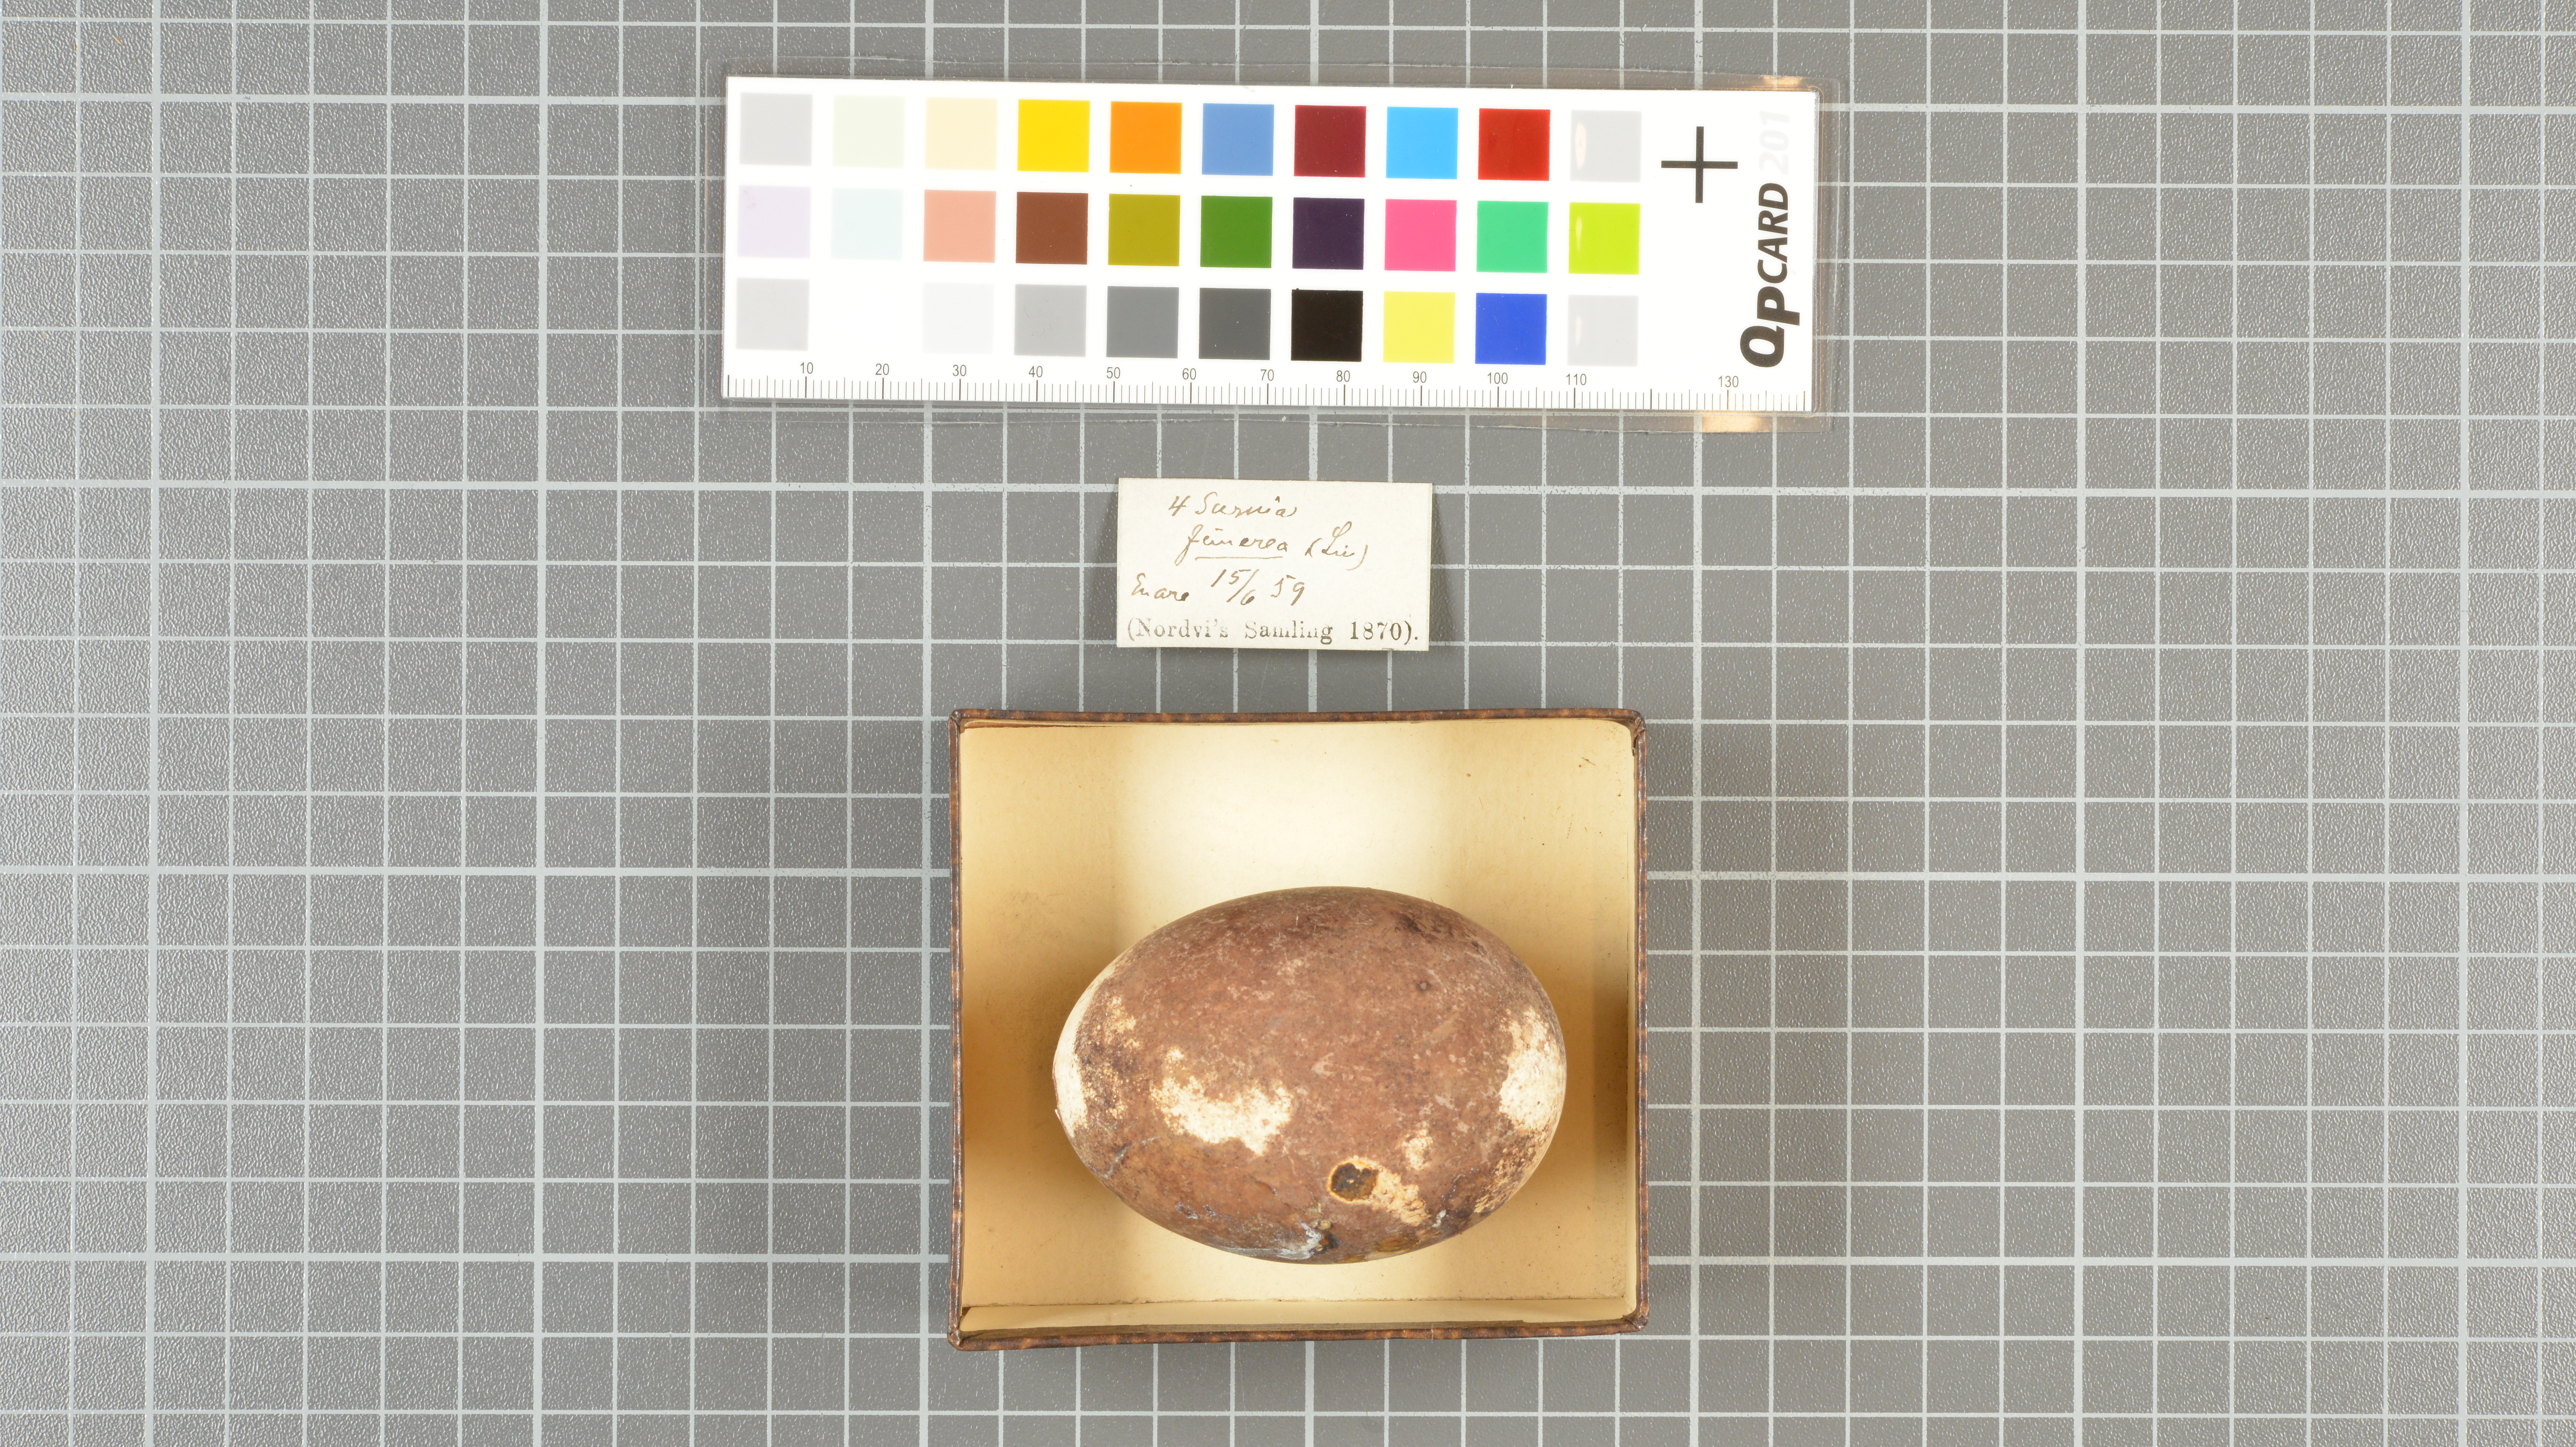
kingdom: Animalia
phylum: Chordata
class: Aves
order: Strigiformes
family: Strigidae
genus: Aegolius
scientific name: Aegolius funereus
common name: Boreal owl
